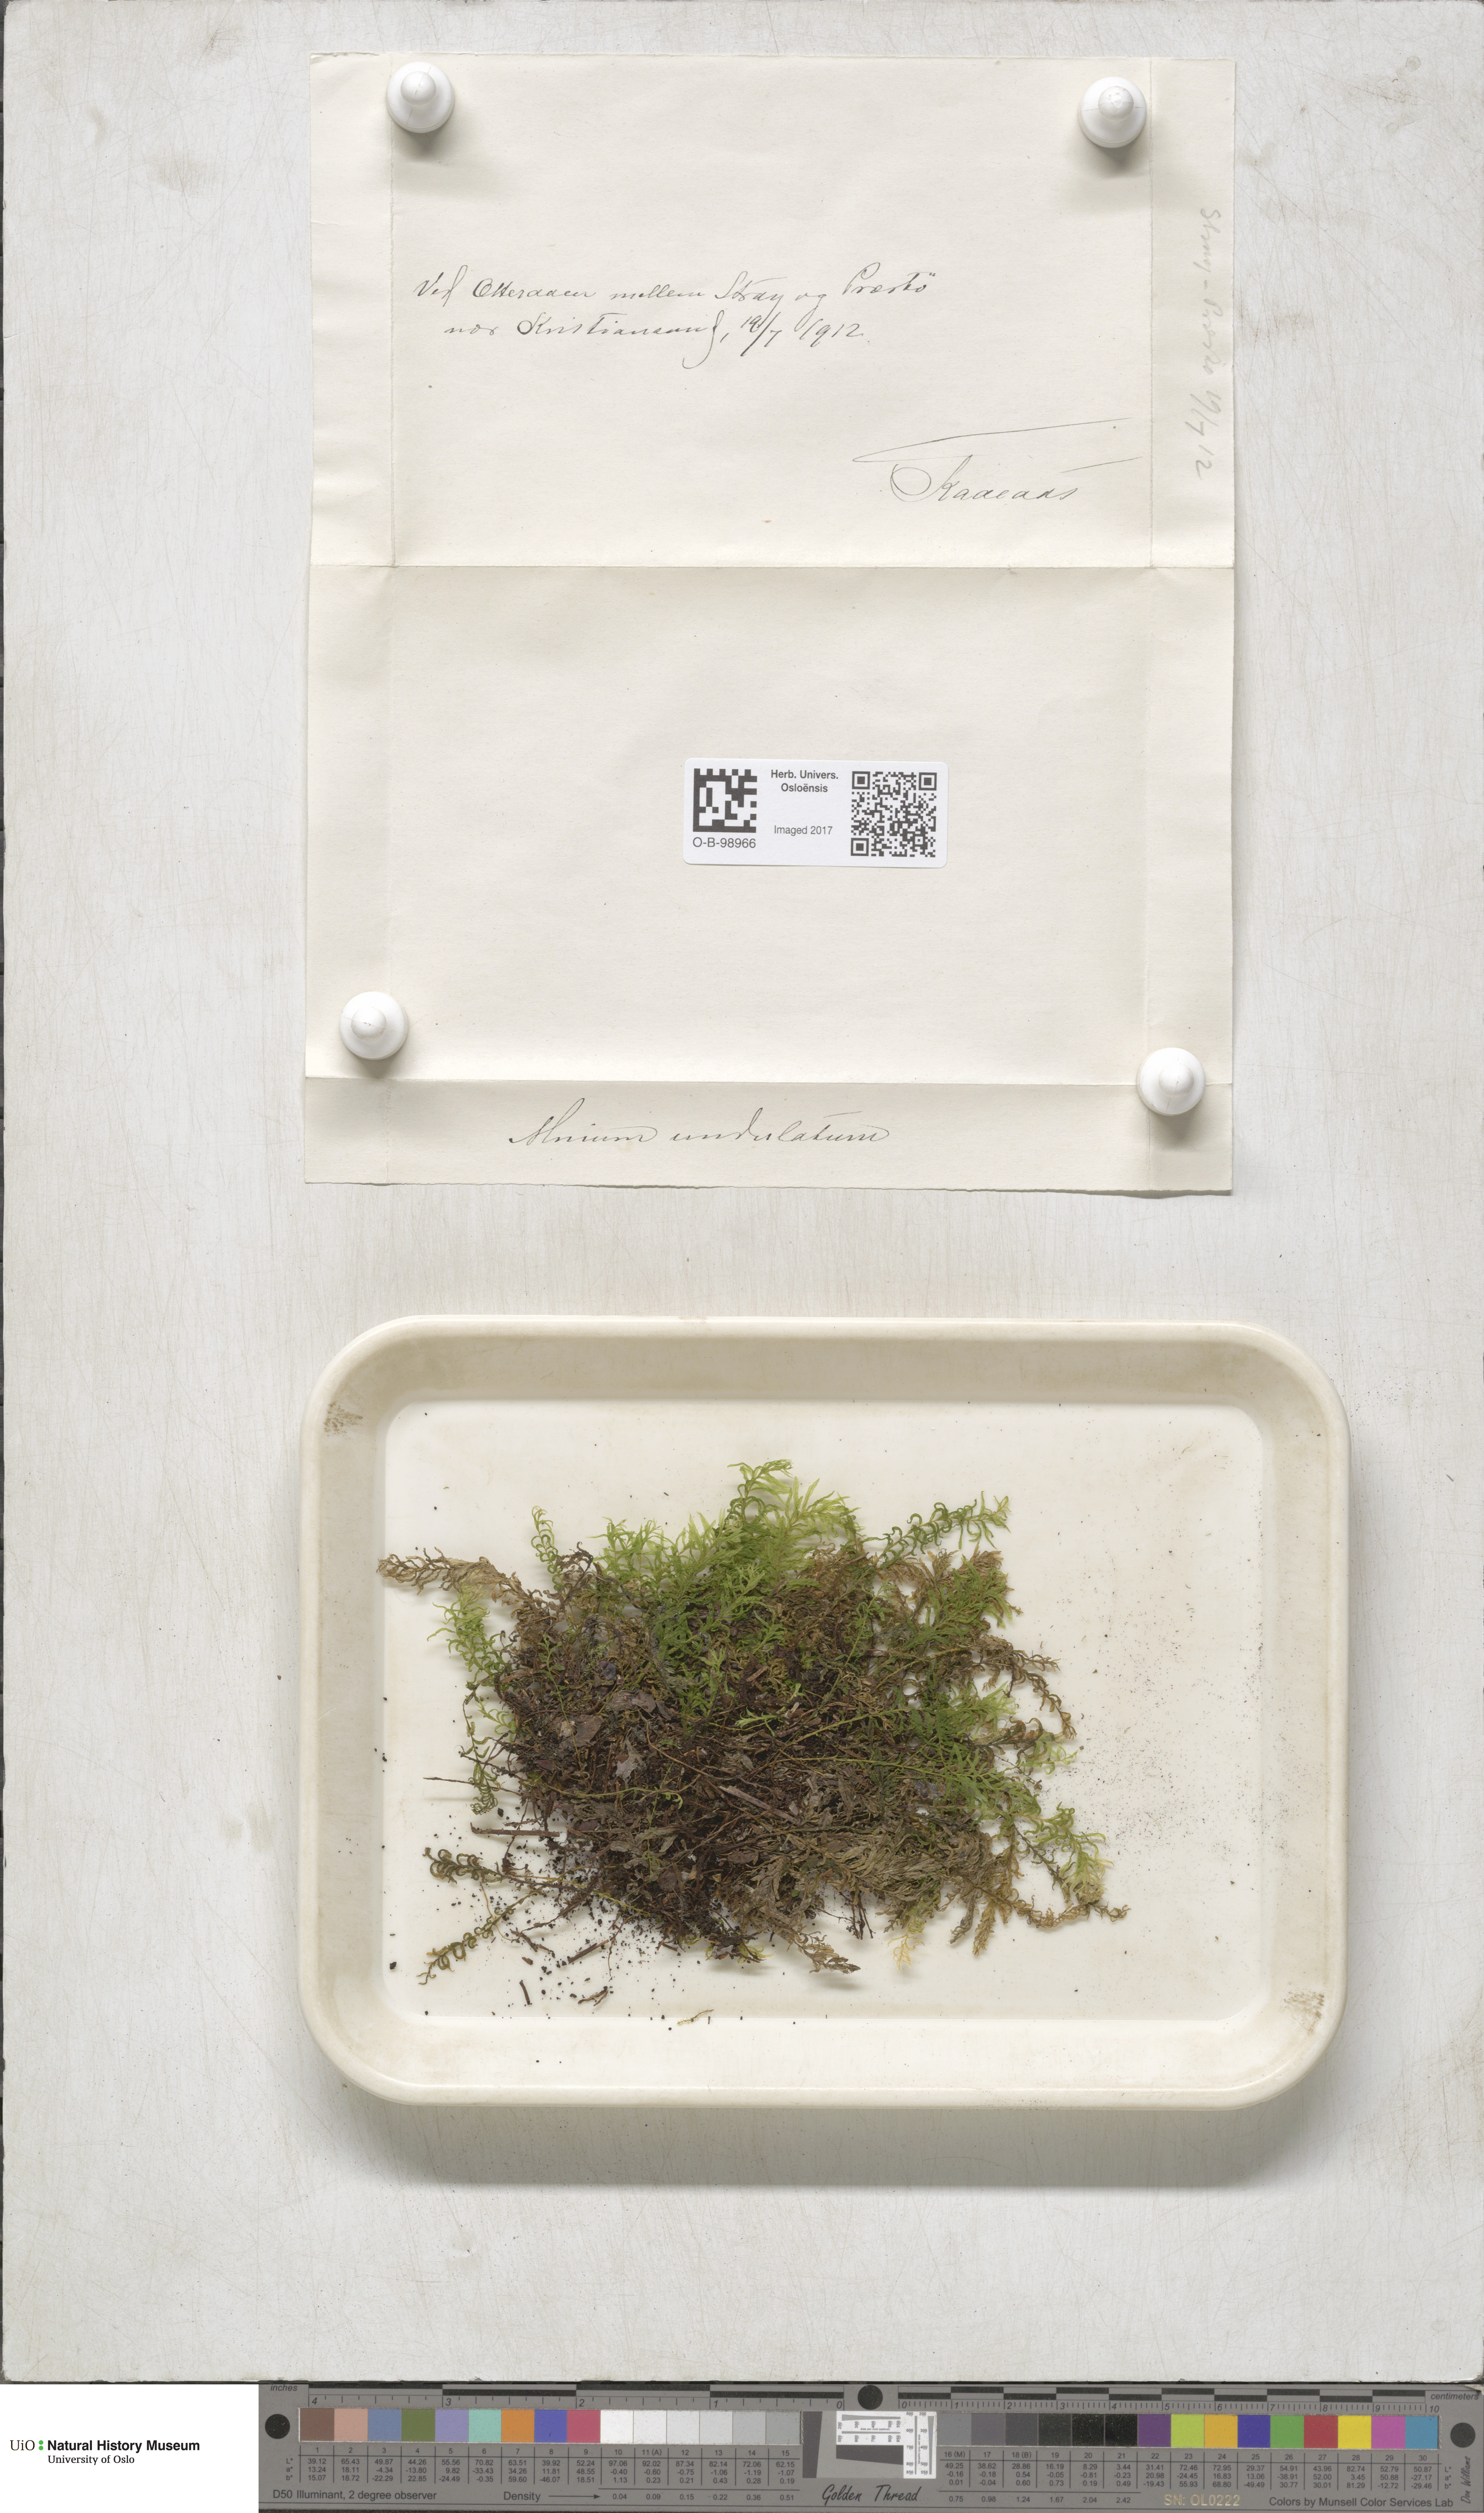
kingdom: Plantae
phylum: Bryophyta
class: Bryopsida
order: Bryales
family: Mniaceae
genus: Plagiomnium
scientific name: Plagiomnium undulatum
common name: Hart's-tongue thyme-moss
